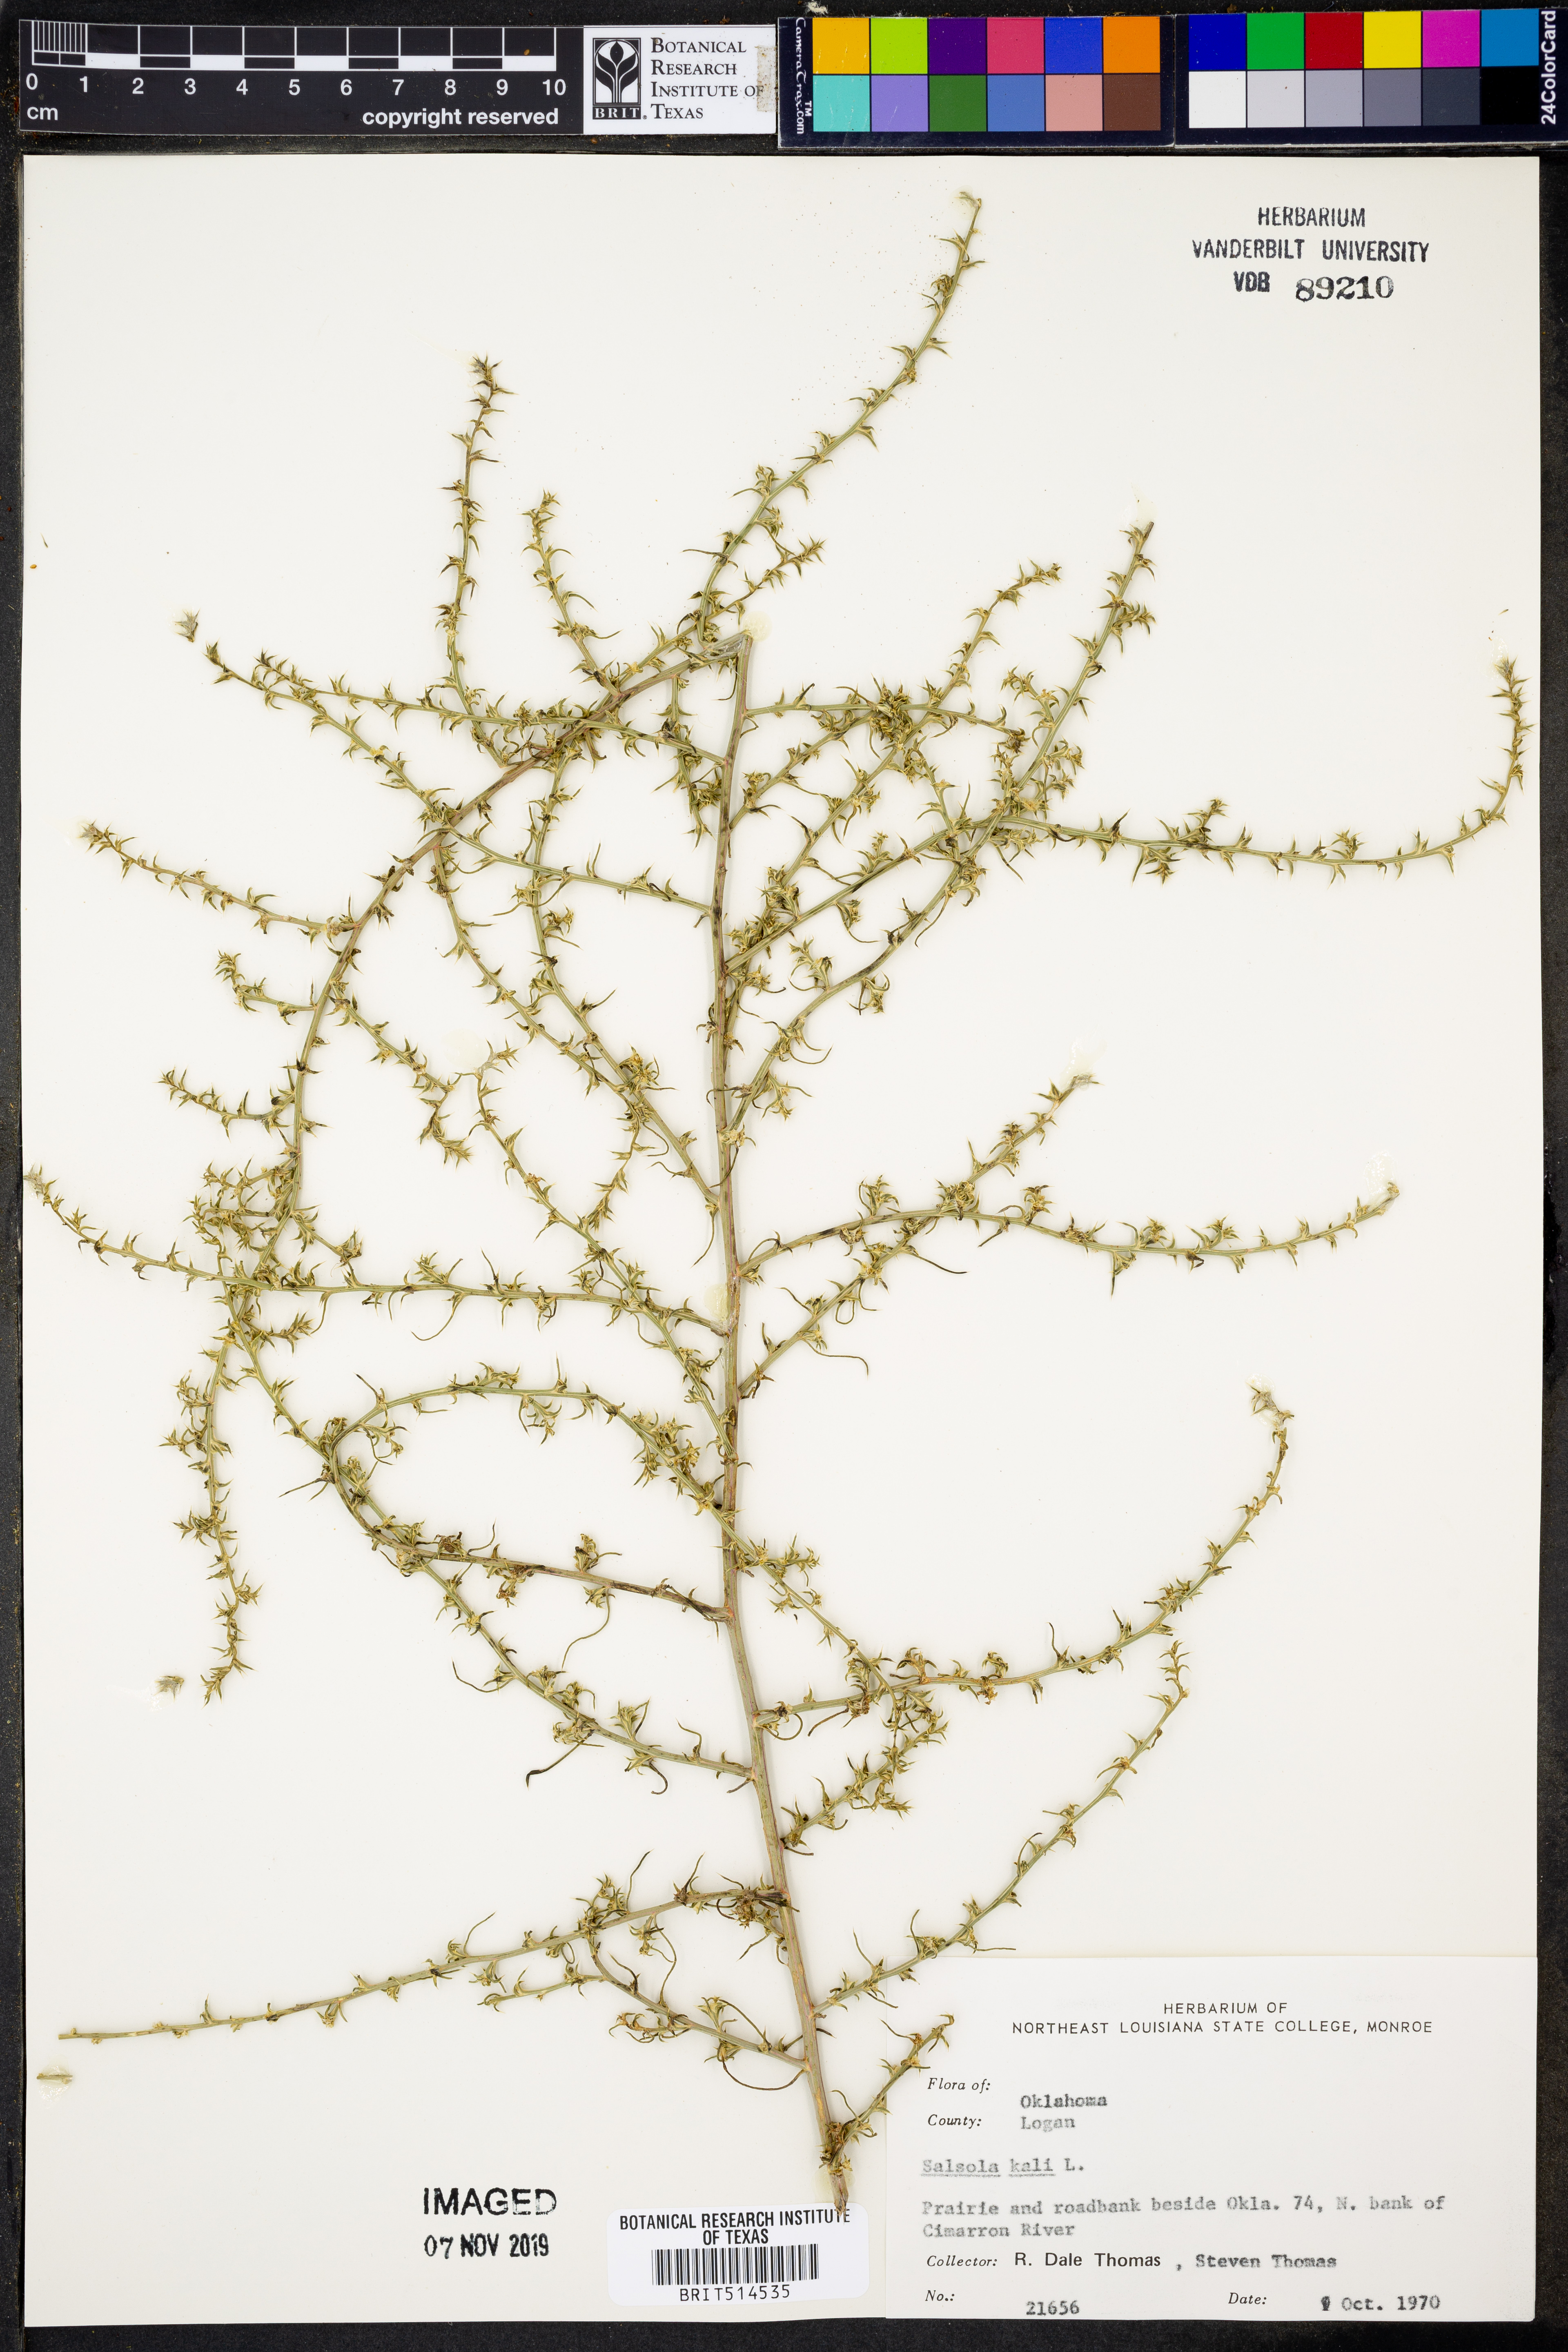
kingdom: Plantae
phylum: Tracheophyta
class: Magnoliopsida
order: Caryophyllales
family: Amaranthaceae
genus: Salsola
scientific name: Salsola kali
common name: Saltwort
